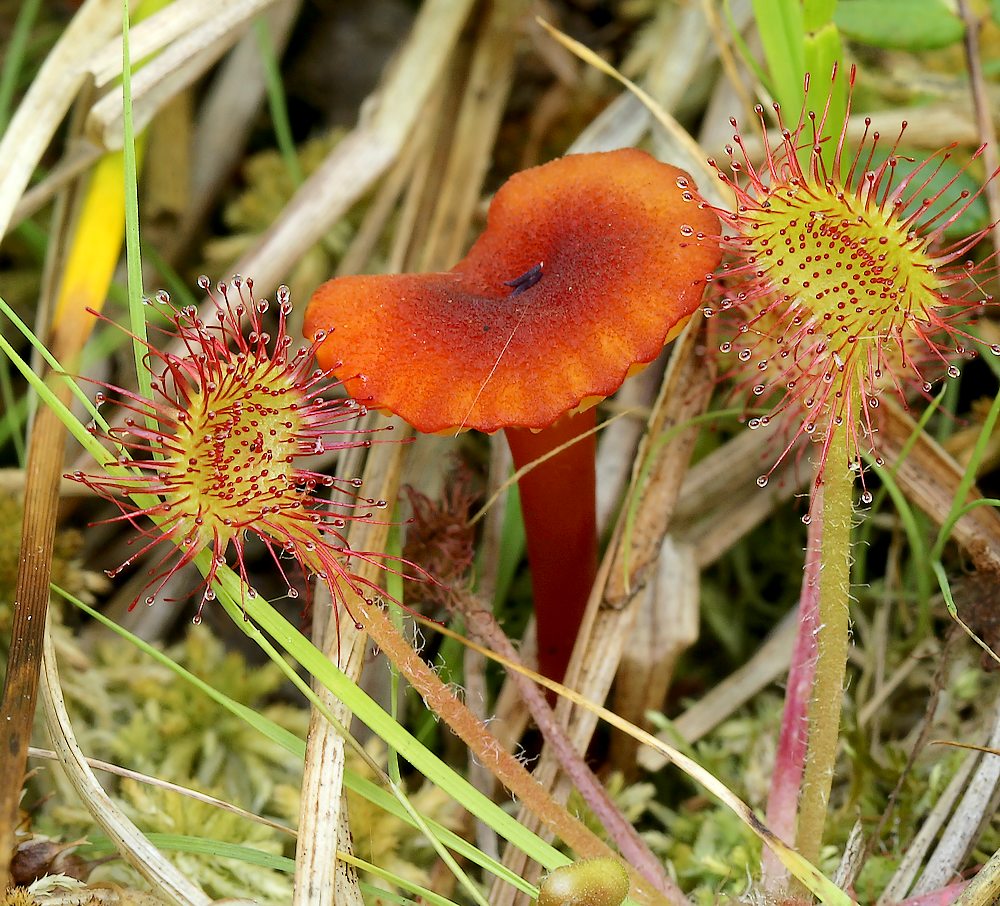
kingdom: Fungi
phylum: Basidiomycota
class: Agaricomycetes
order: Agaricales
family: Hygrophoraceae
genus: Hygrocybe
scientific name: Hygrocybe coccineocrenata
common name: tørvemos-vokshat
